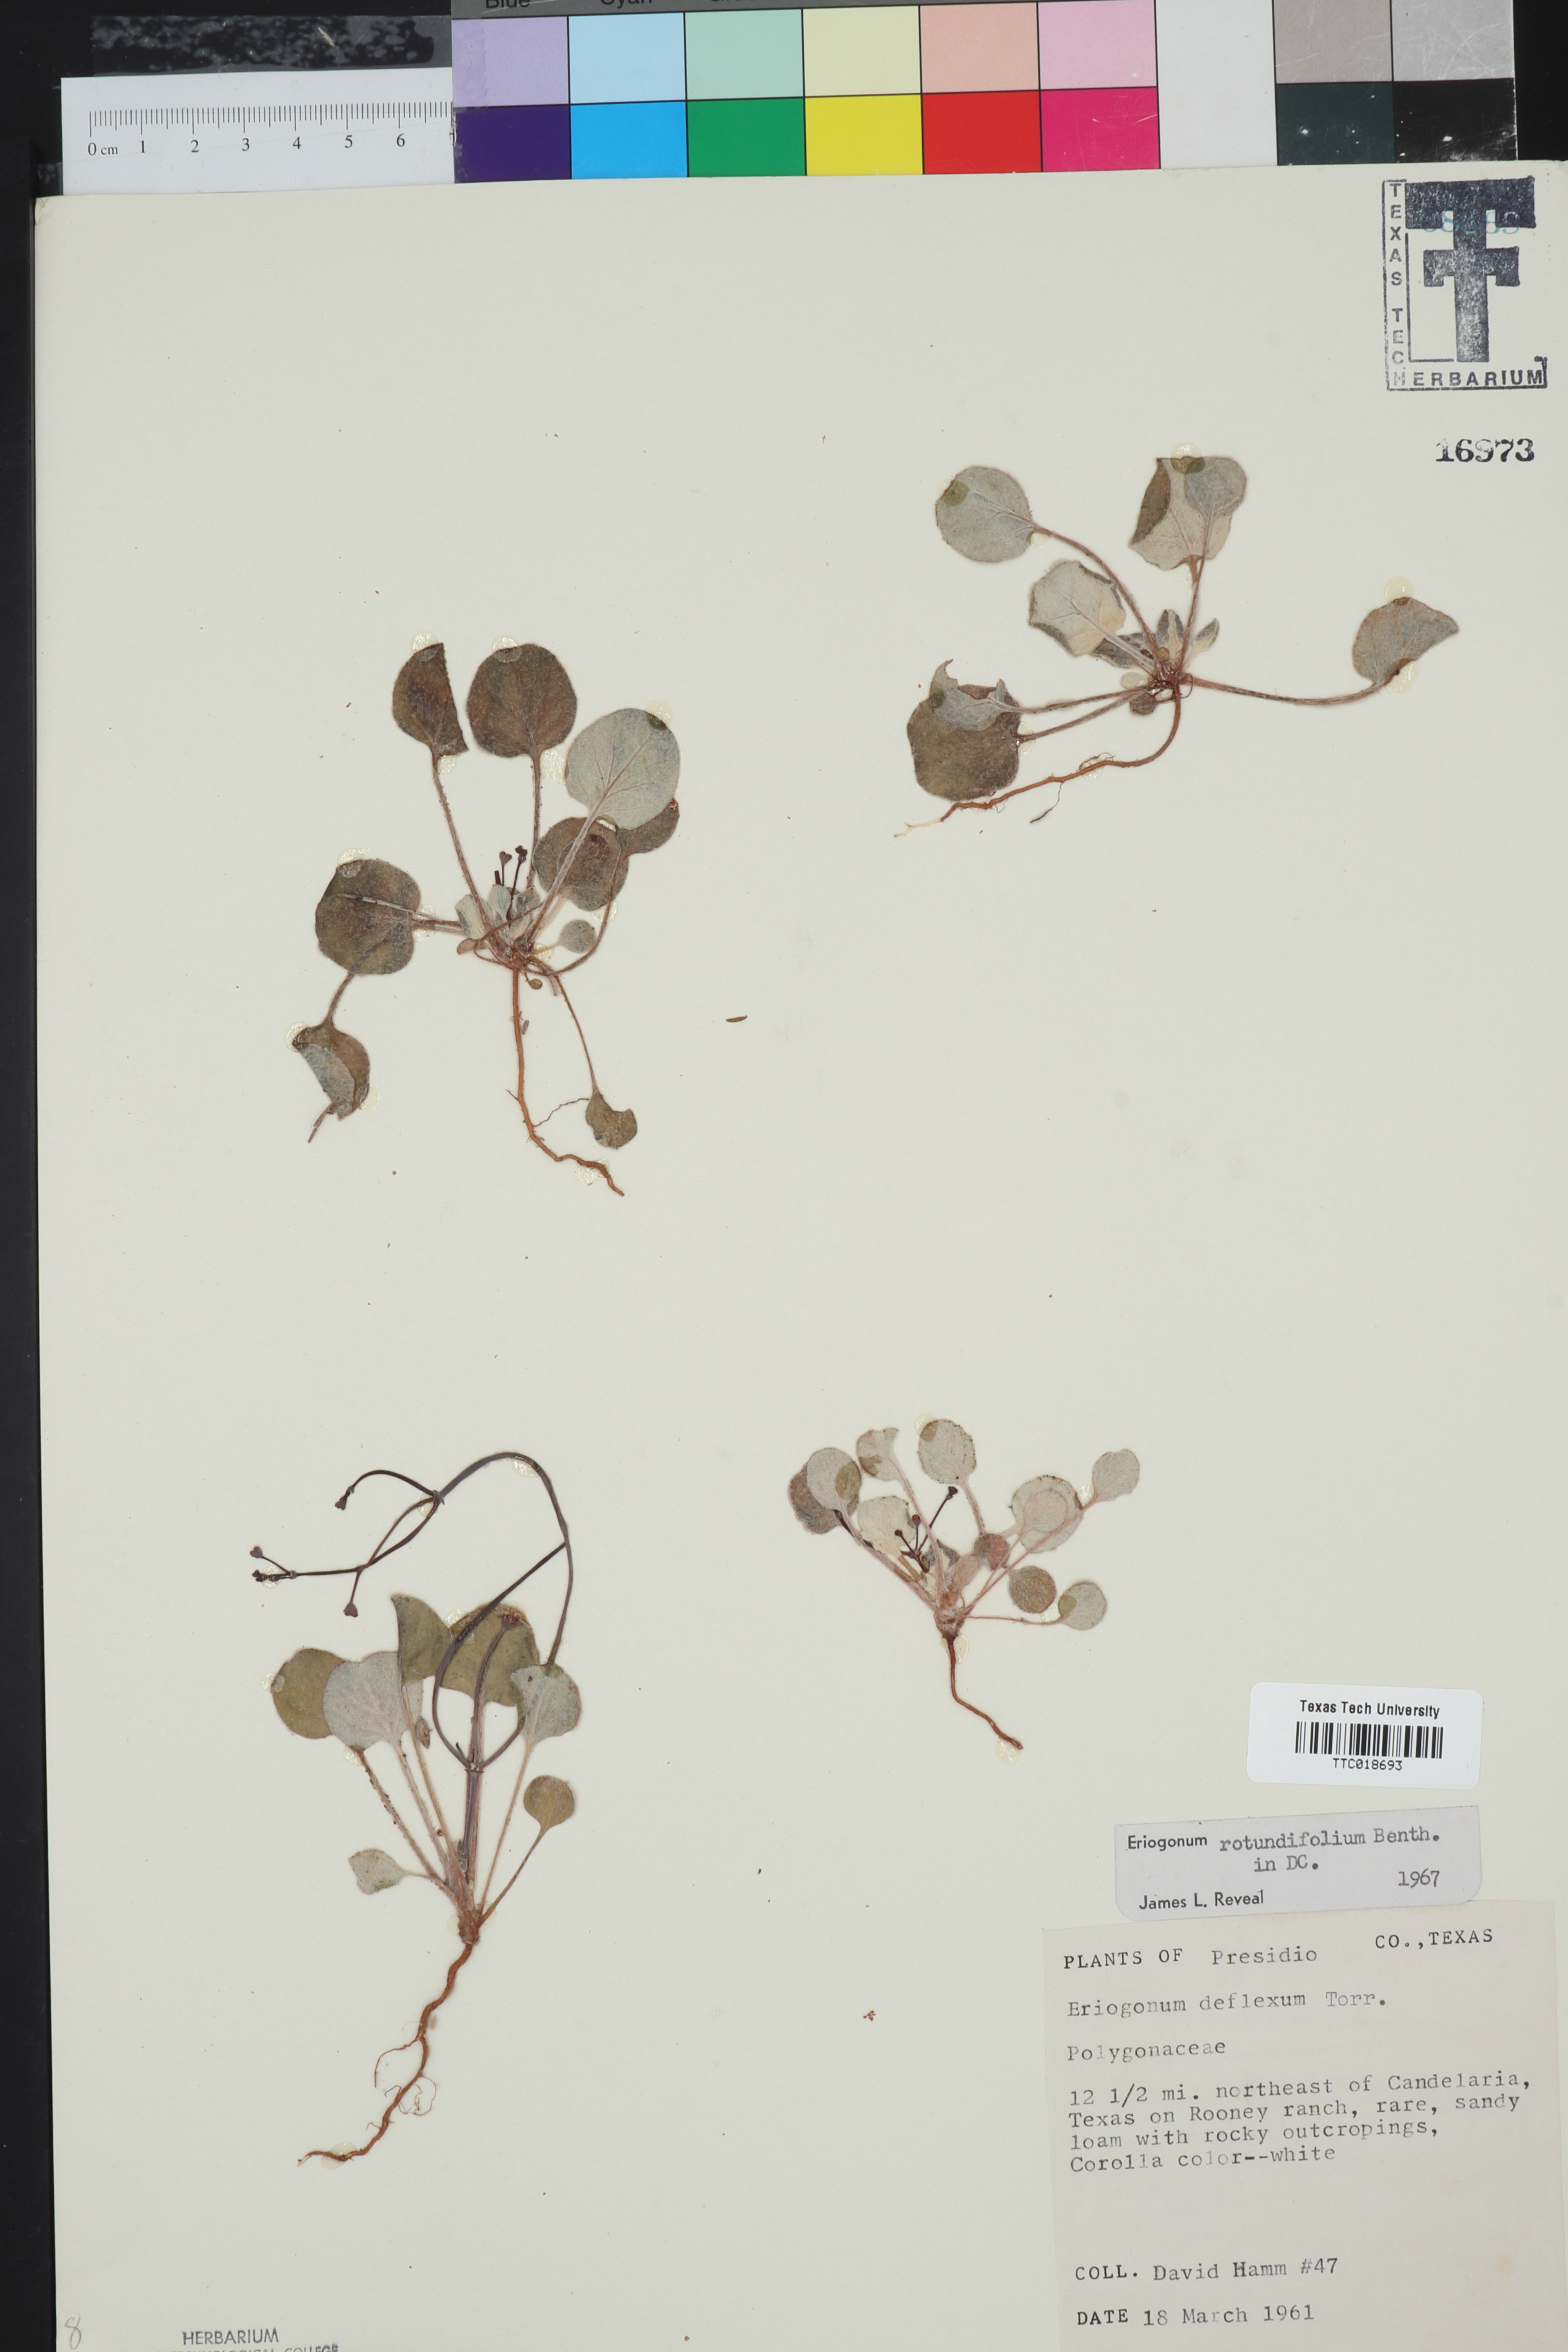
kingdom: Plantae
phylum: Tracheophyta
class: Magnoliopsida
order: Caryophyllales
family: Polygonaceae
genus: Eriogonum
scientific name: Eriogonum rotundifolium
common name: Round-leaf wild buckwheat
